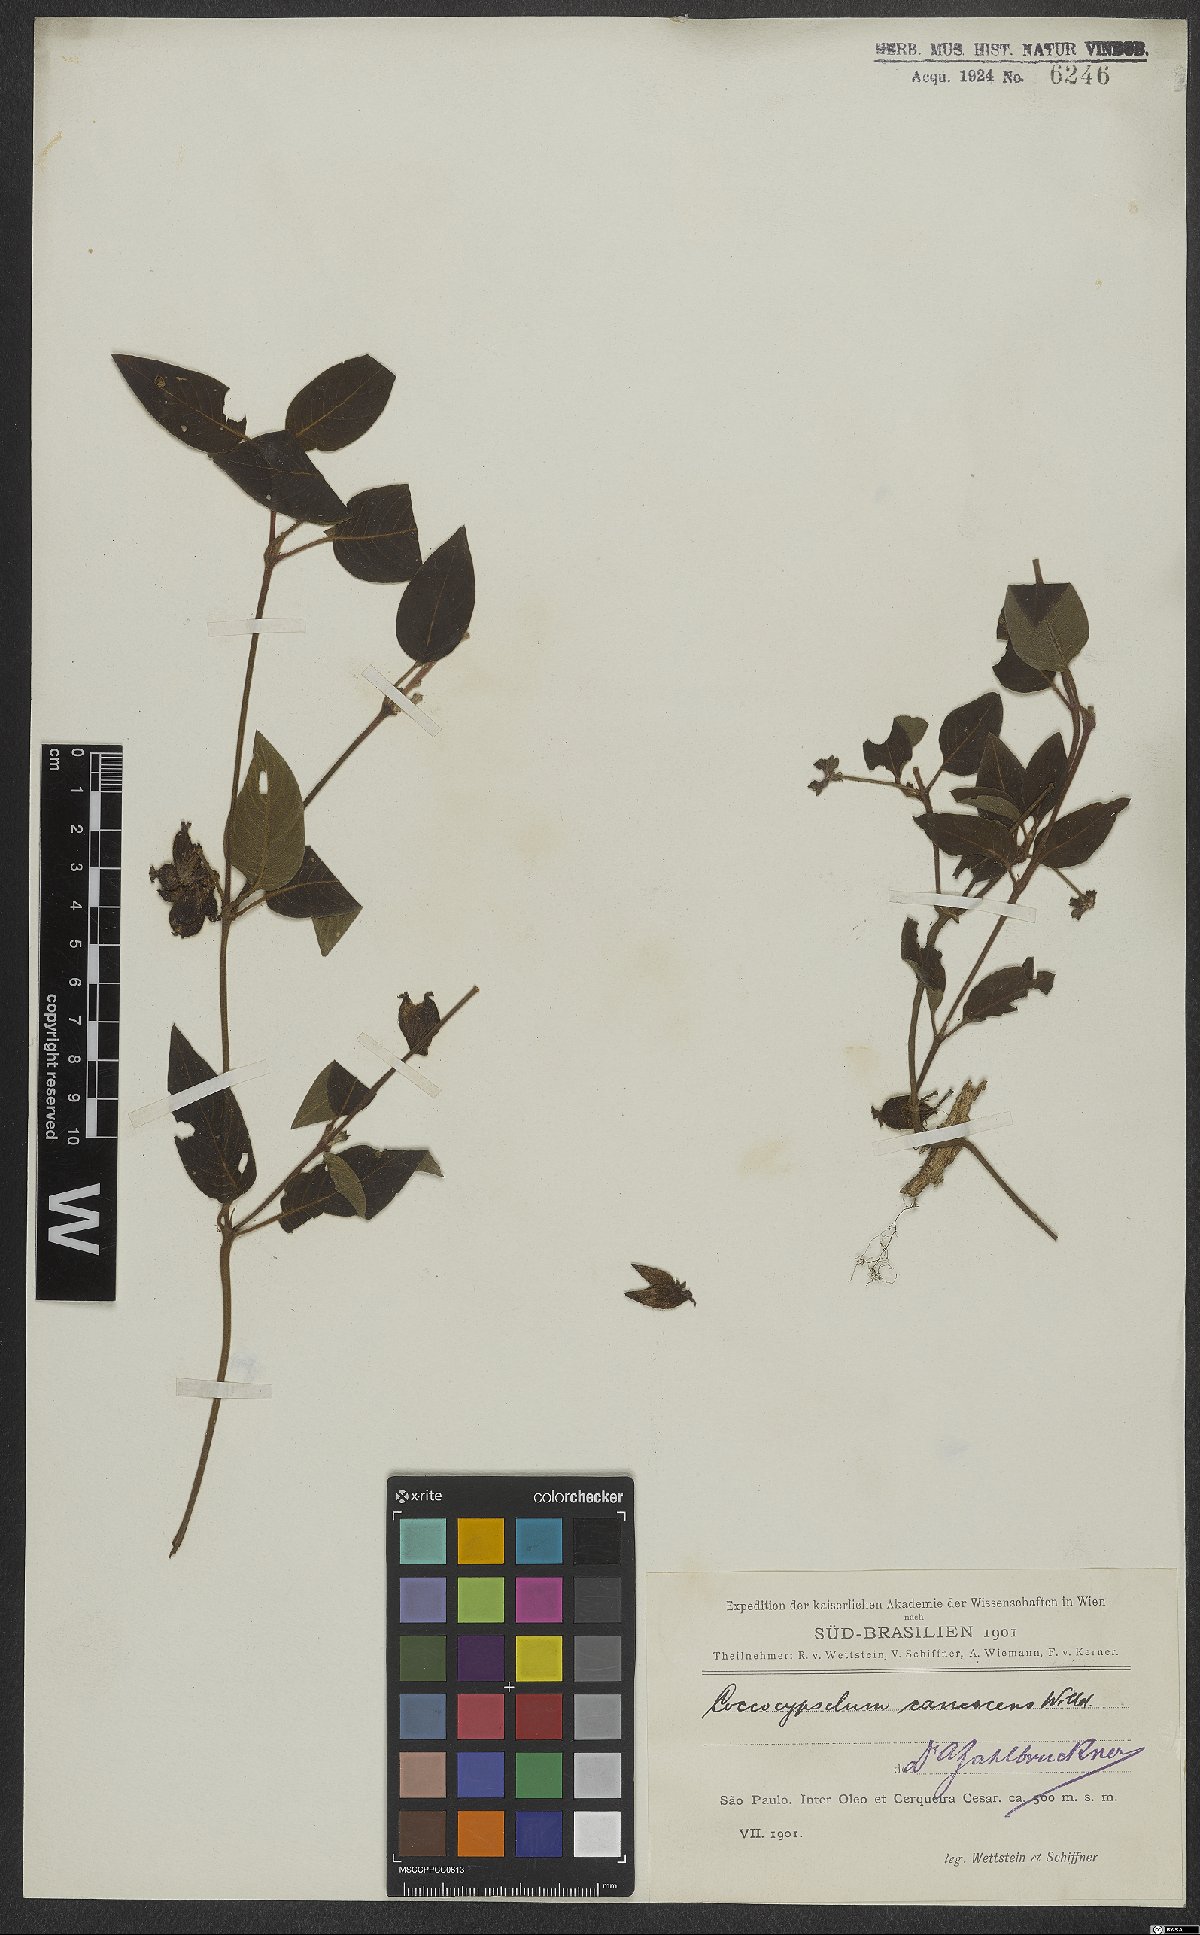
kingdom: Plantae
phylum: Tracheophyta
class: Magnoliopsida
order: Gentianales
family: Rubiaceae
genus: Coccocypselum
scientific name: Coccocypselum lanceolatum
